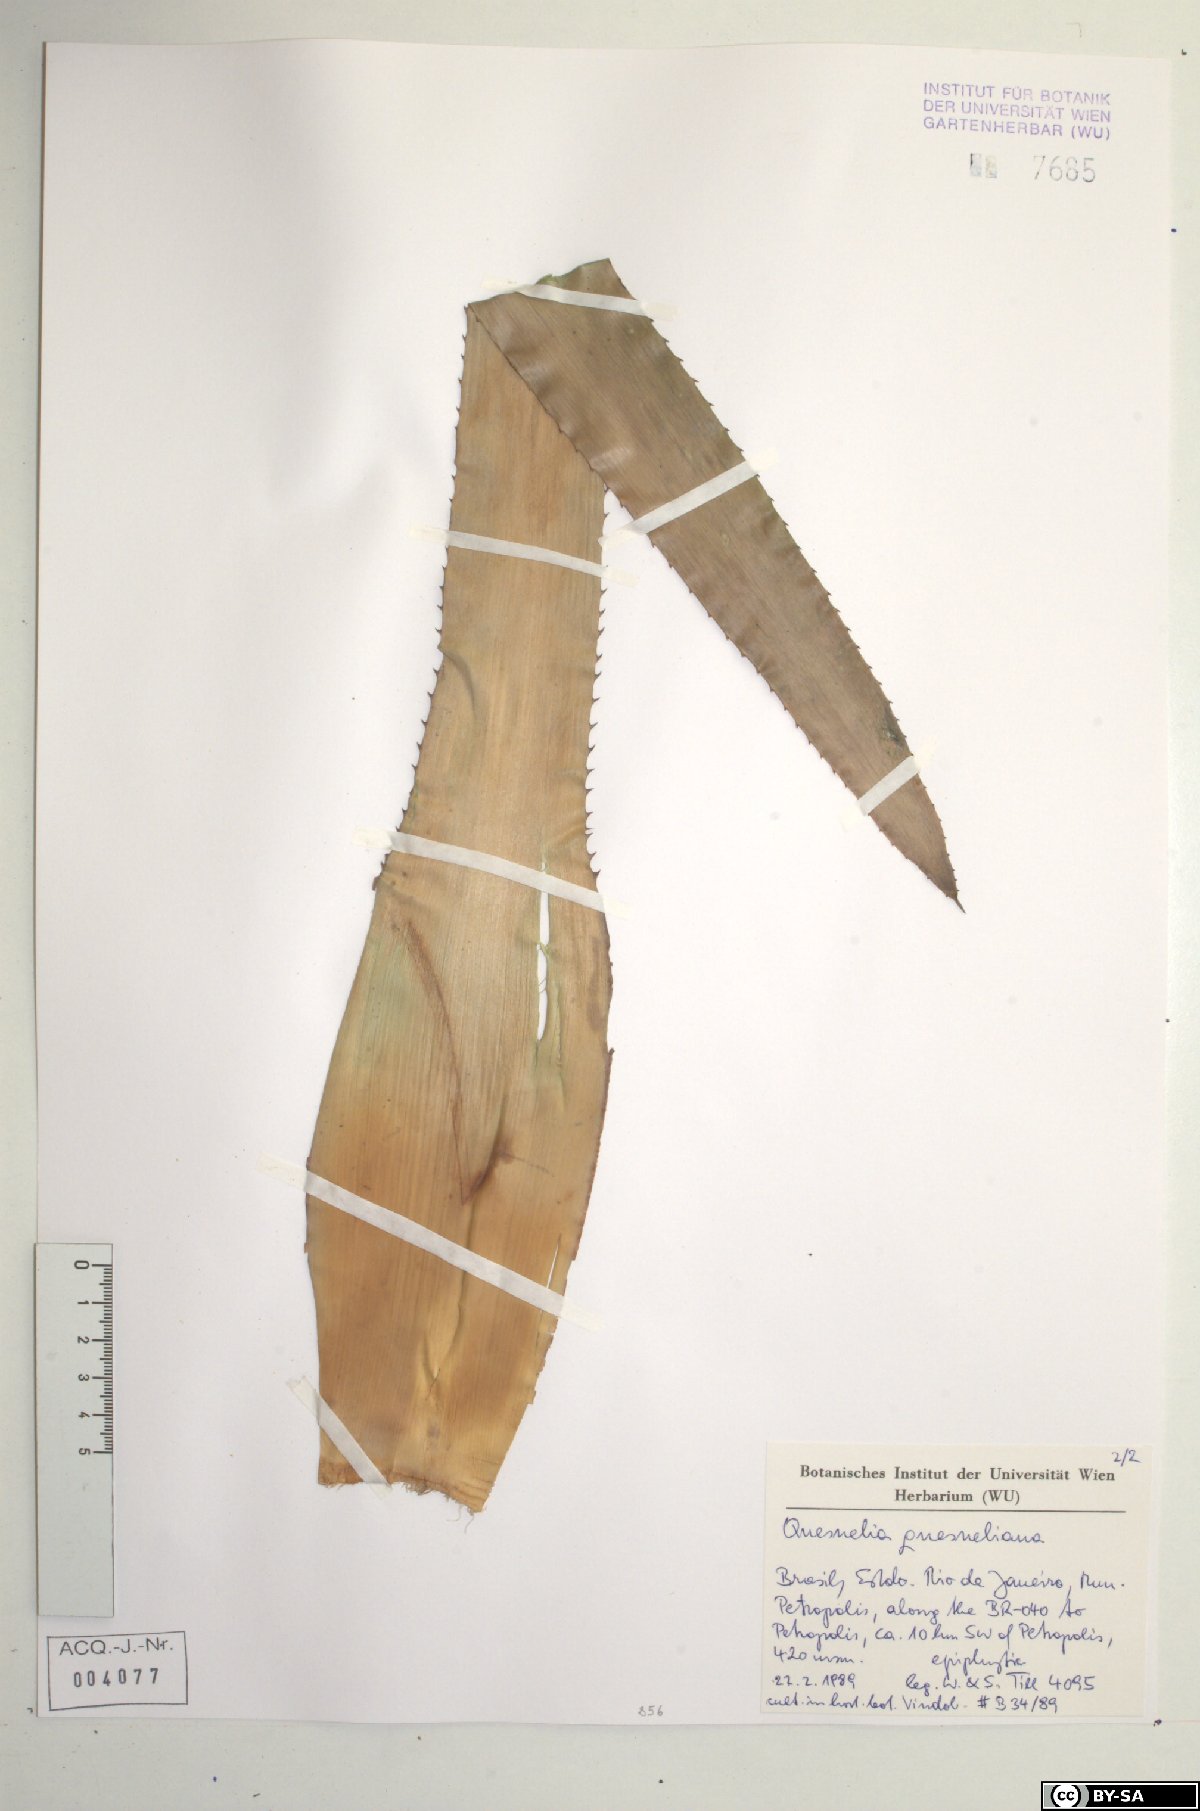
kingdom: Plantae
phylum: Tracheophyta
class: Liliopsida
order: Poales
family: Bromeliaceae
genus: Quesnelia
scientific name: Quesnelia quesneliana
